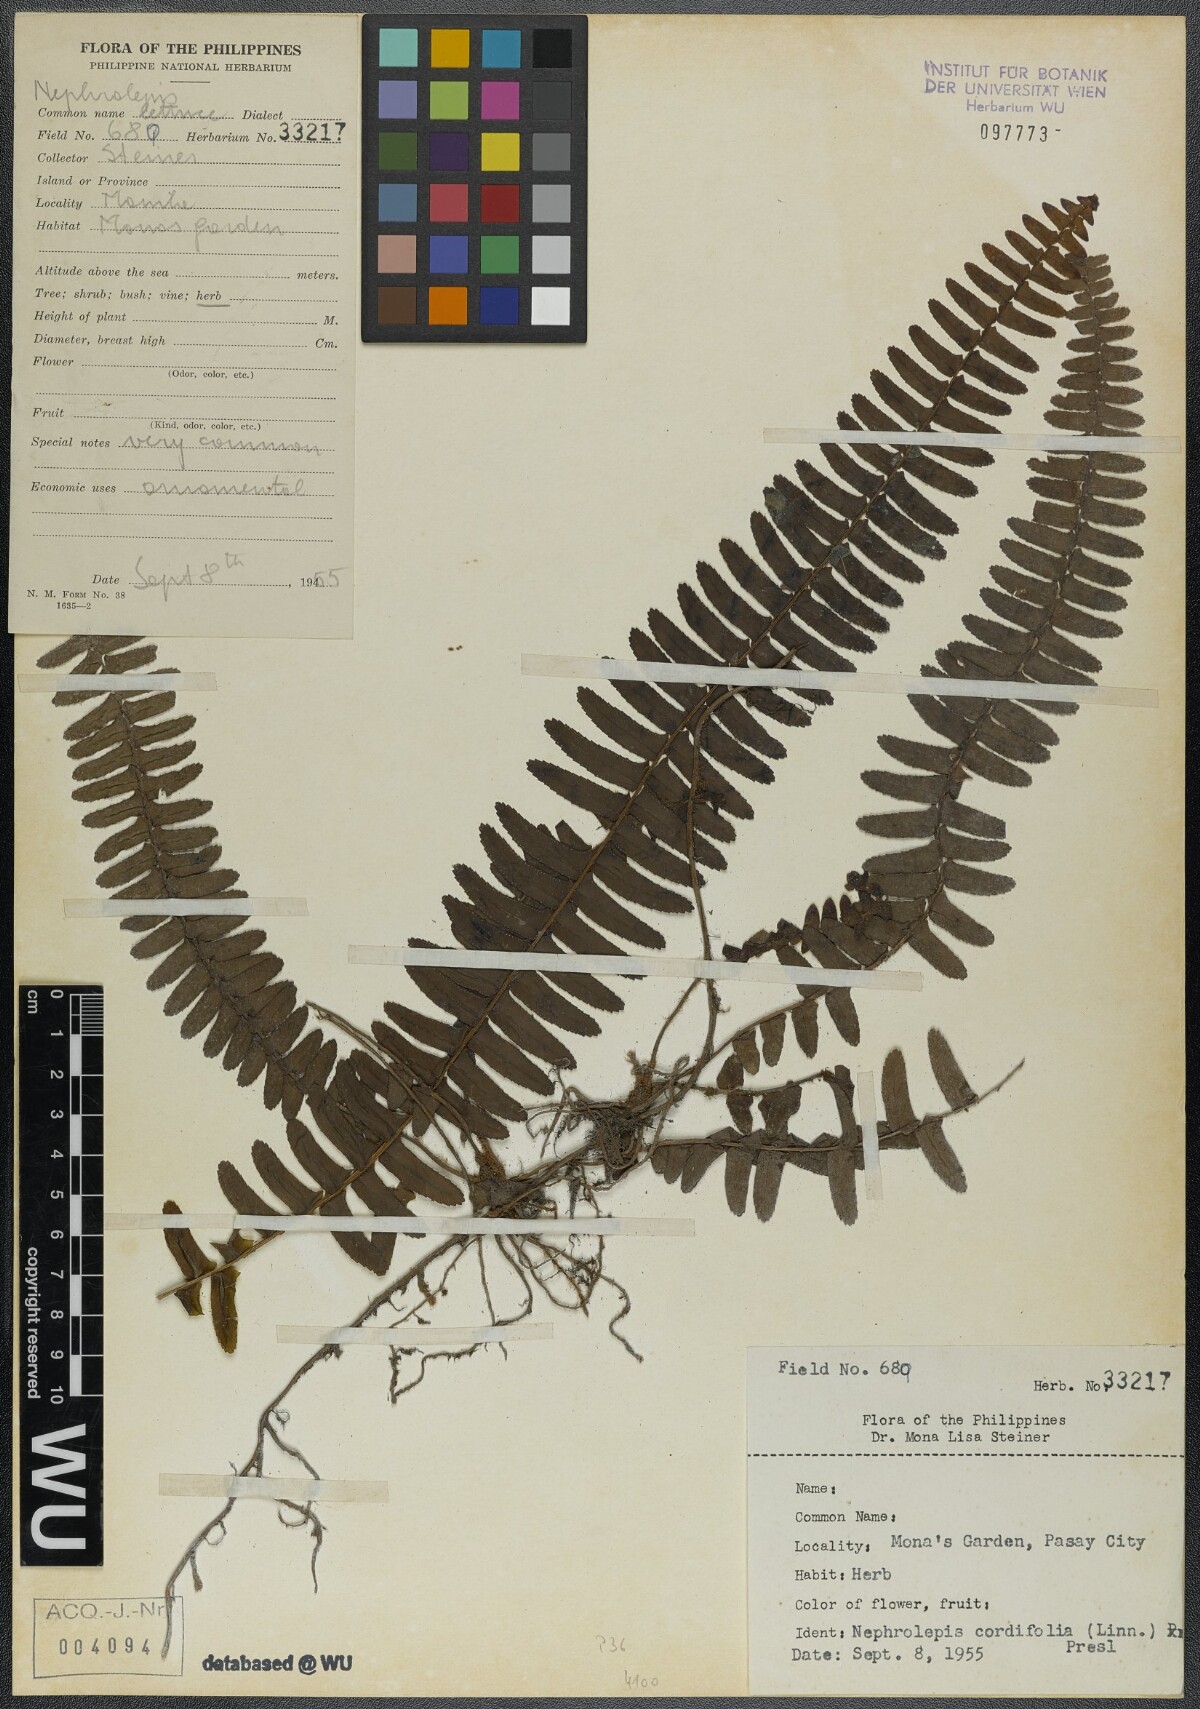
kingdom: Plantae
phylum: Tracheophyta
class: Polypodiopsida
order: Polypodiales
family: Nephrolepidaceae
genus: Nephrolepis
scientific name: Nephrolepis cordifolia
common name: Narrow swordfern
